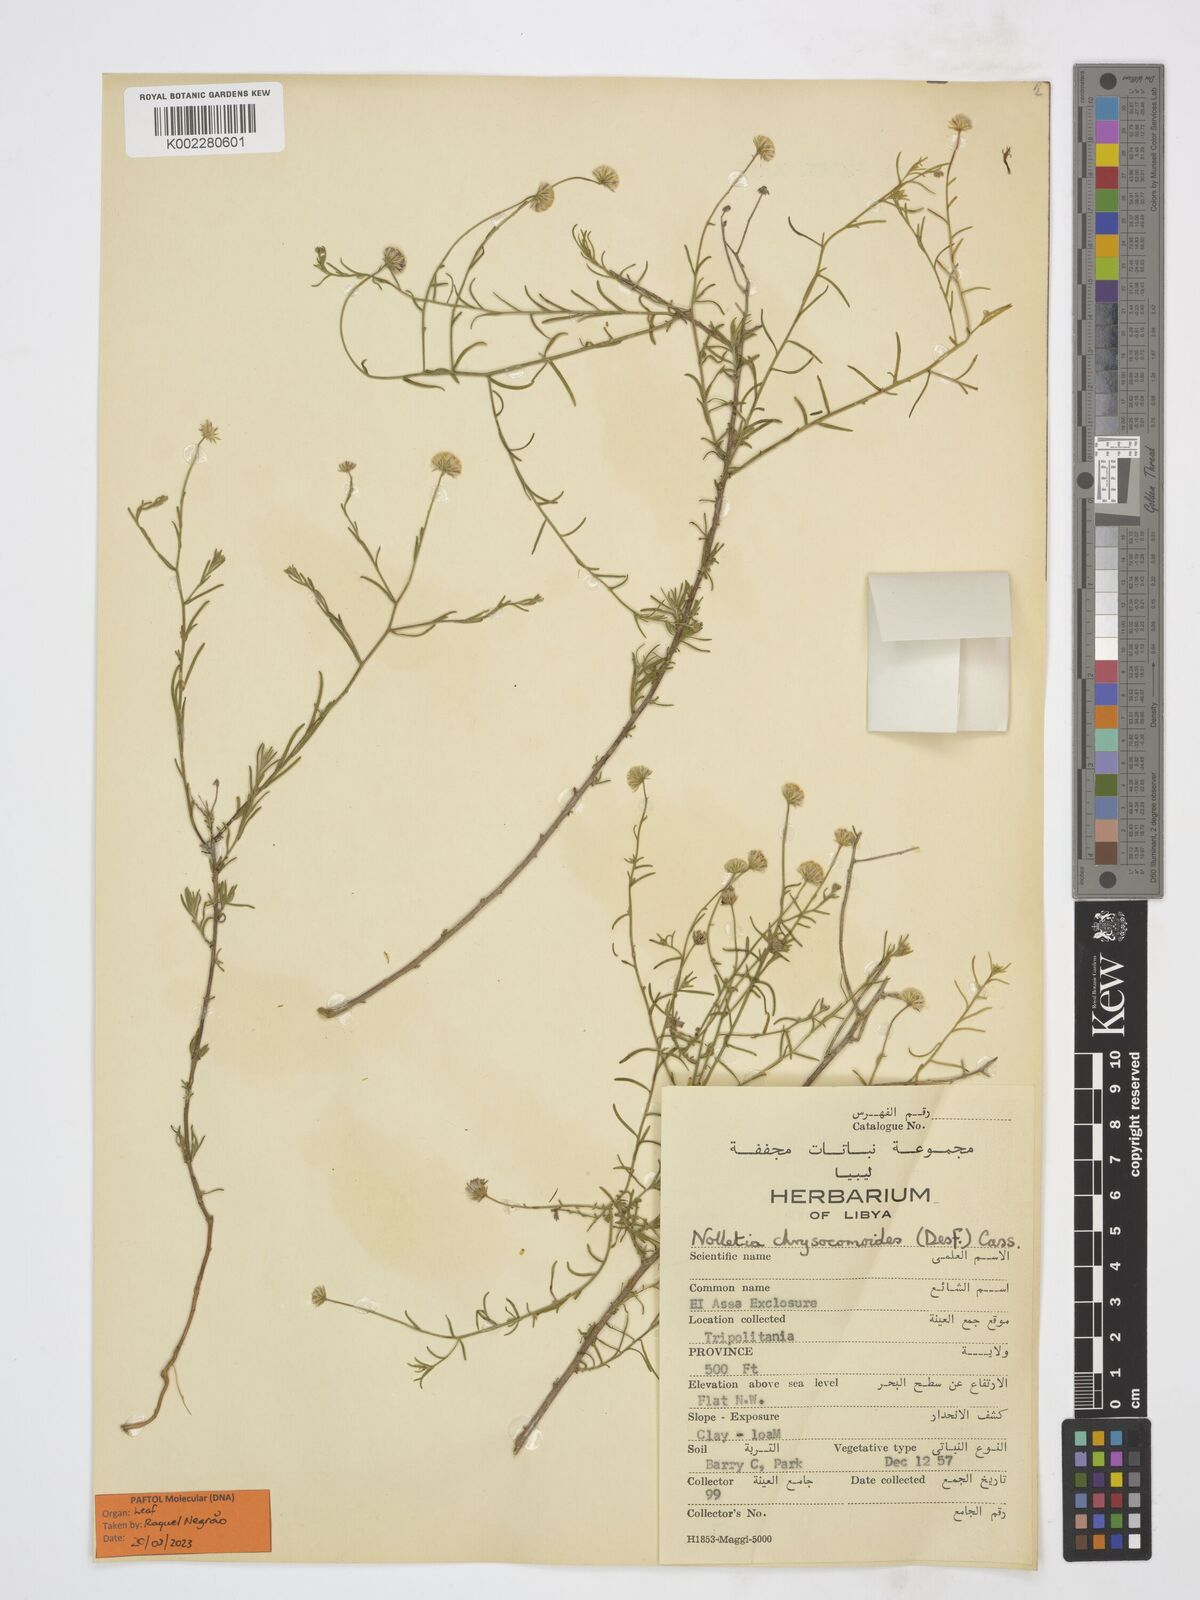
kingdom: Plantae
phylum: Tracheophyta
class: Magnoliopsida
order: Asterales
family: Asteraceae
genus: Nolletia
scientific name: Nolletia chrysocomoides
